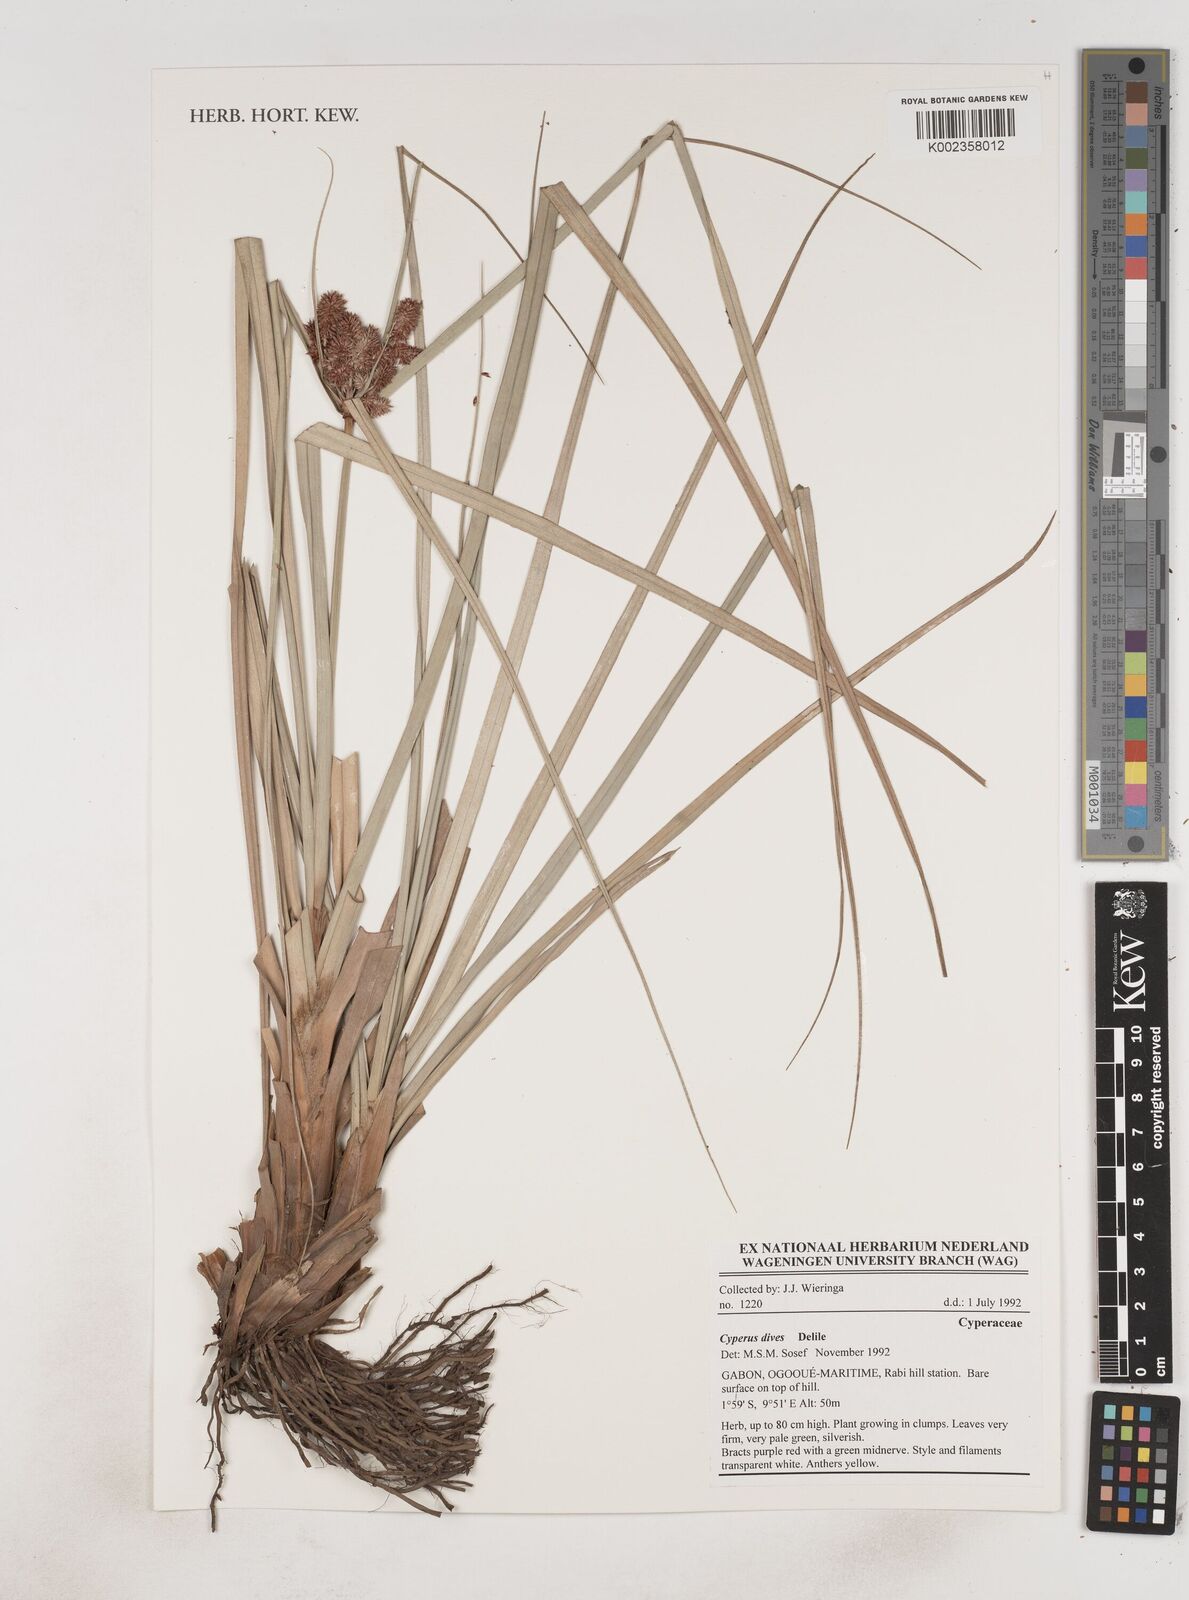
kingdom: Plantae
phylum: Tracheophyta
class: Liliopsida
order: Poales
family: Cyperaceae
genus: Cyperus
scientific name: Cyperus dives
